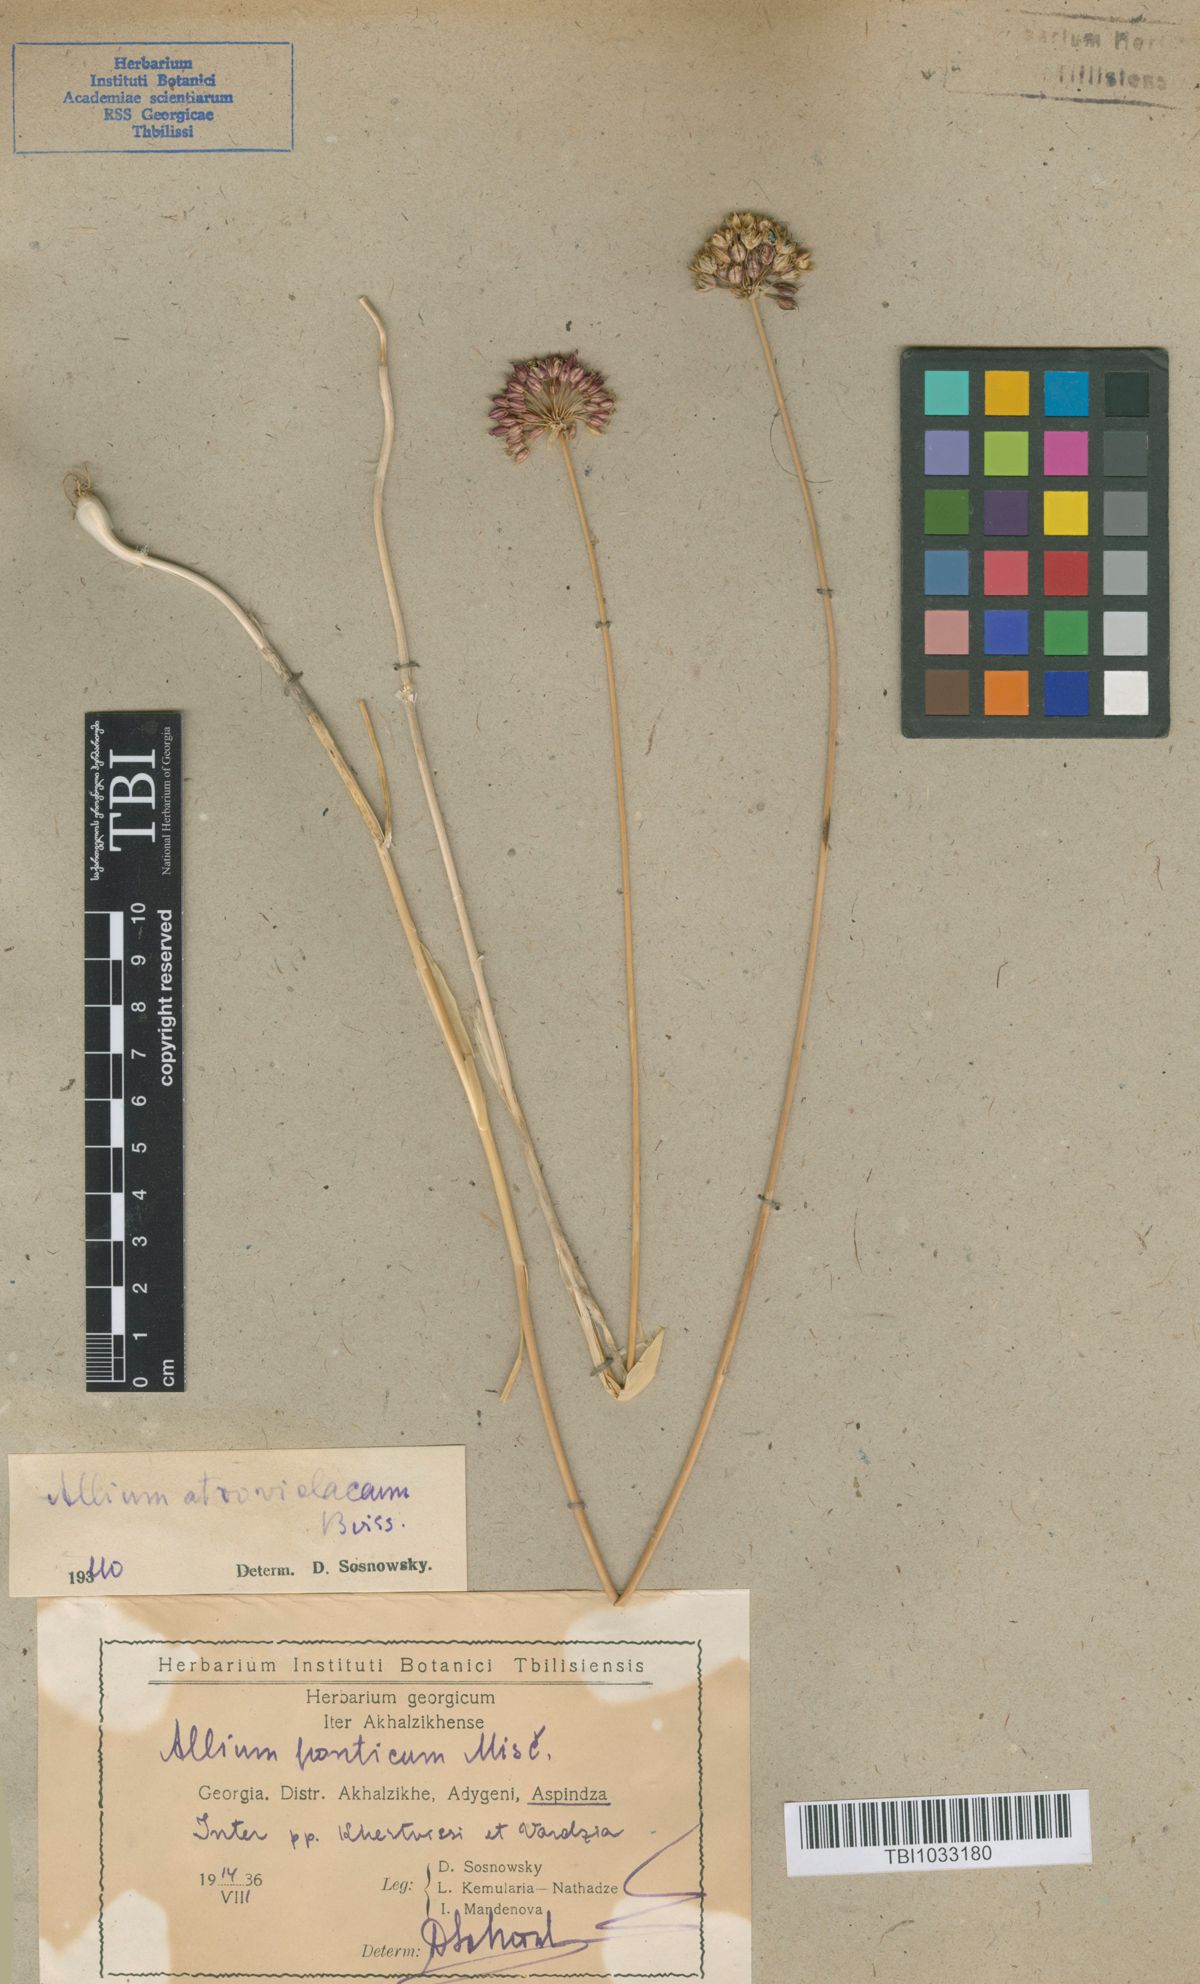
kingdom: Plantae
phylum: Tracheophyta
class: Liliopsida
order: Asparagales
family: Amaryllidaceae
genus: Allium
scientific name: Allium atroviolaceum
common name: Broadleaf wild leek
